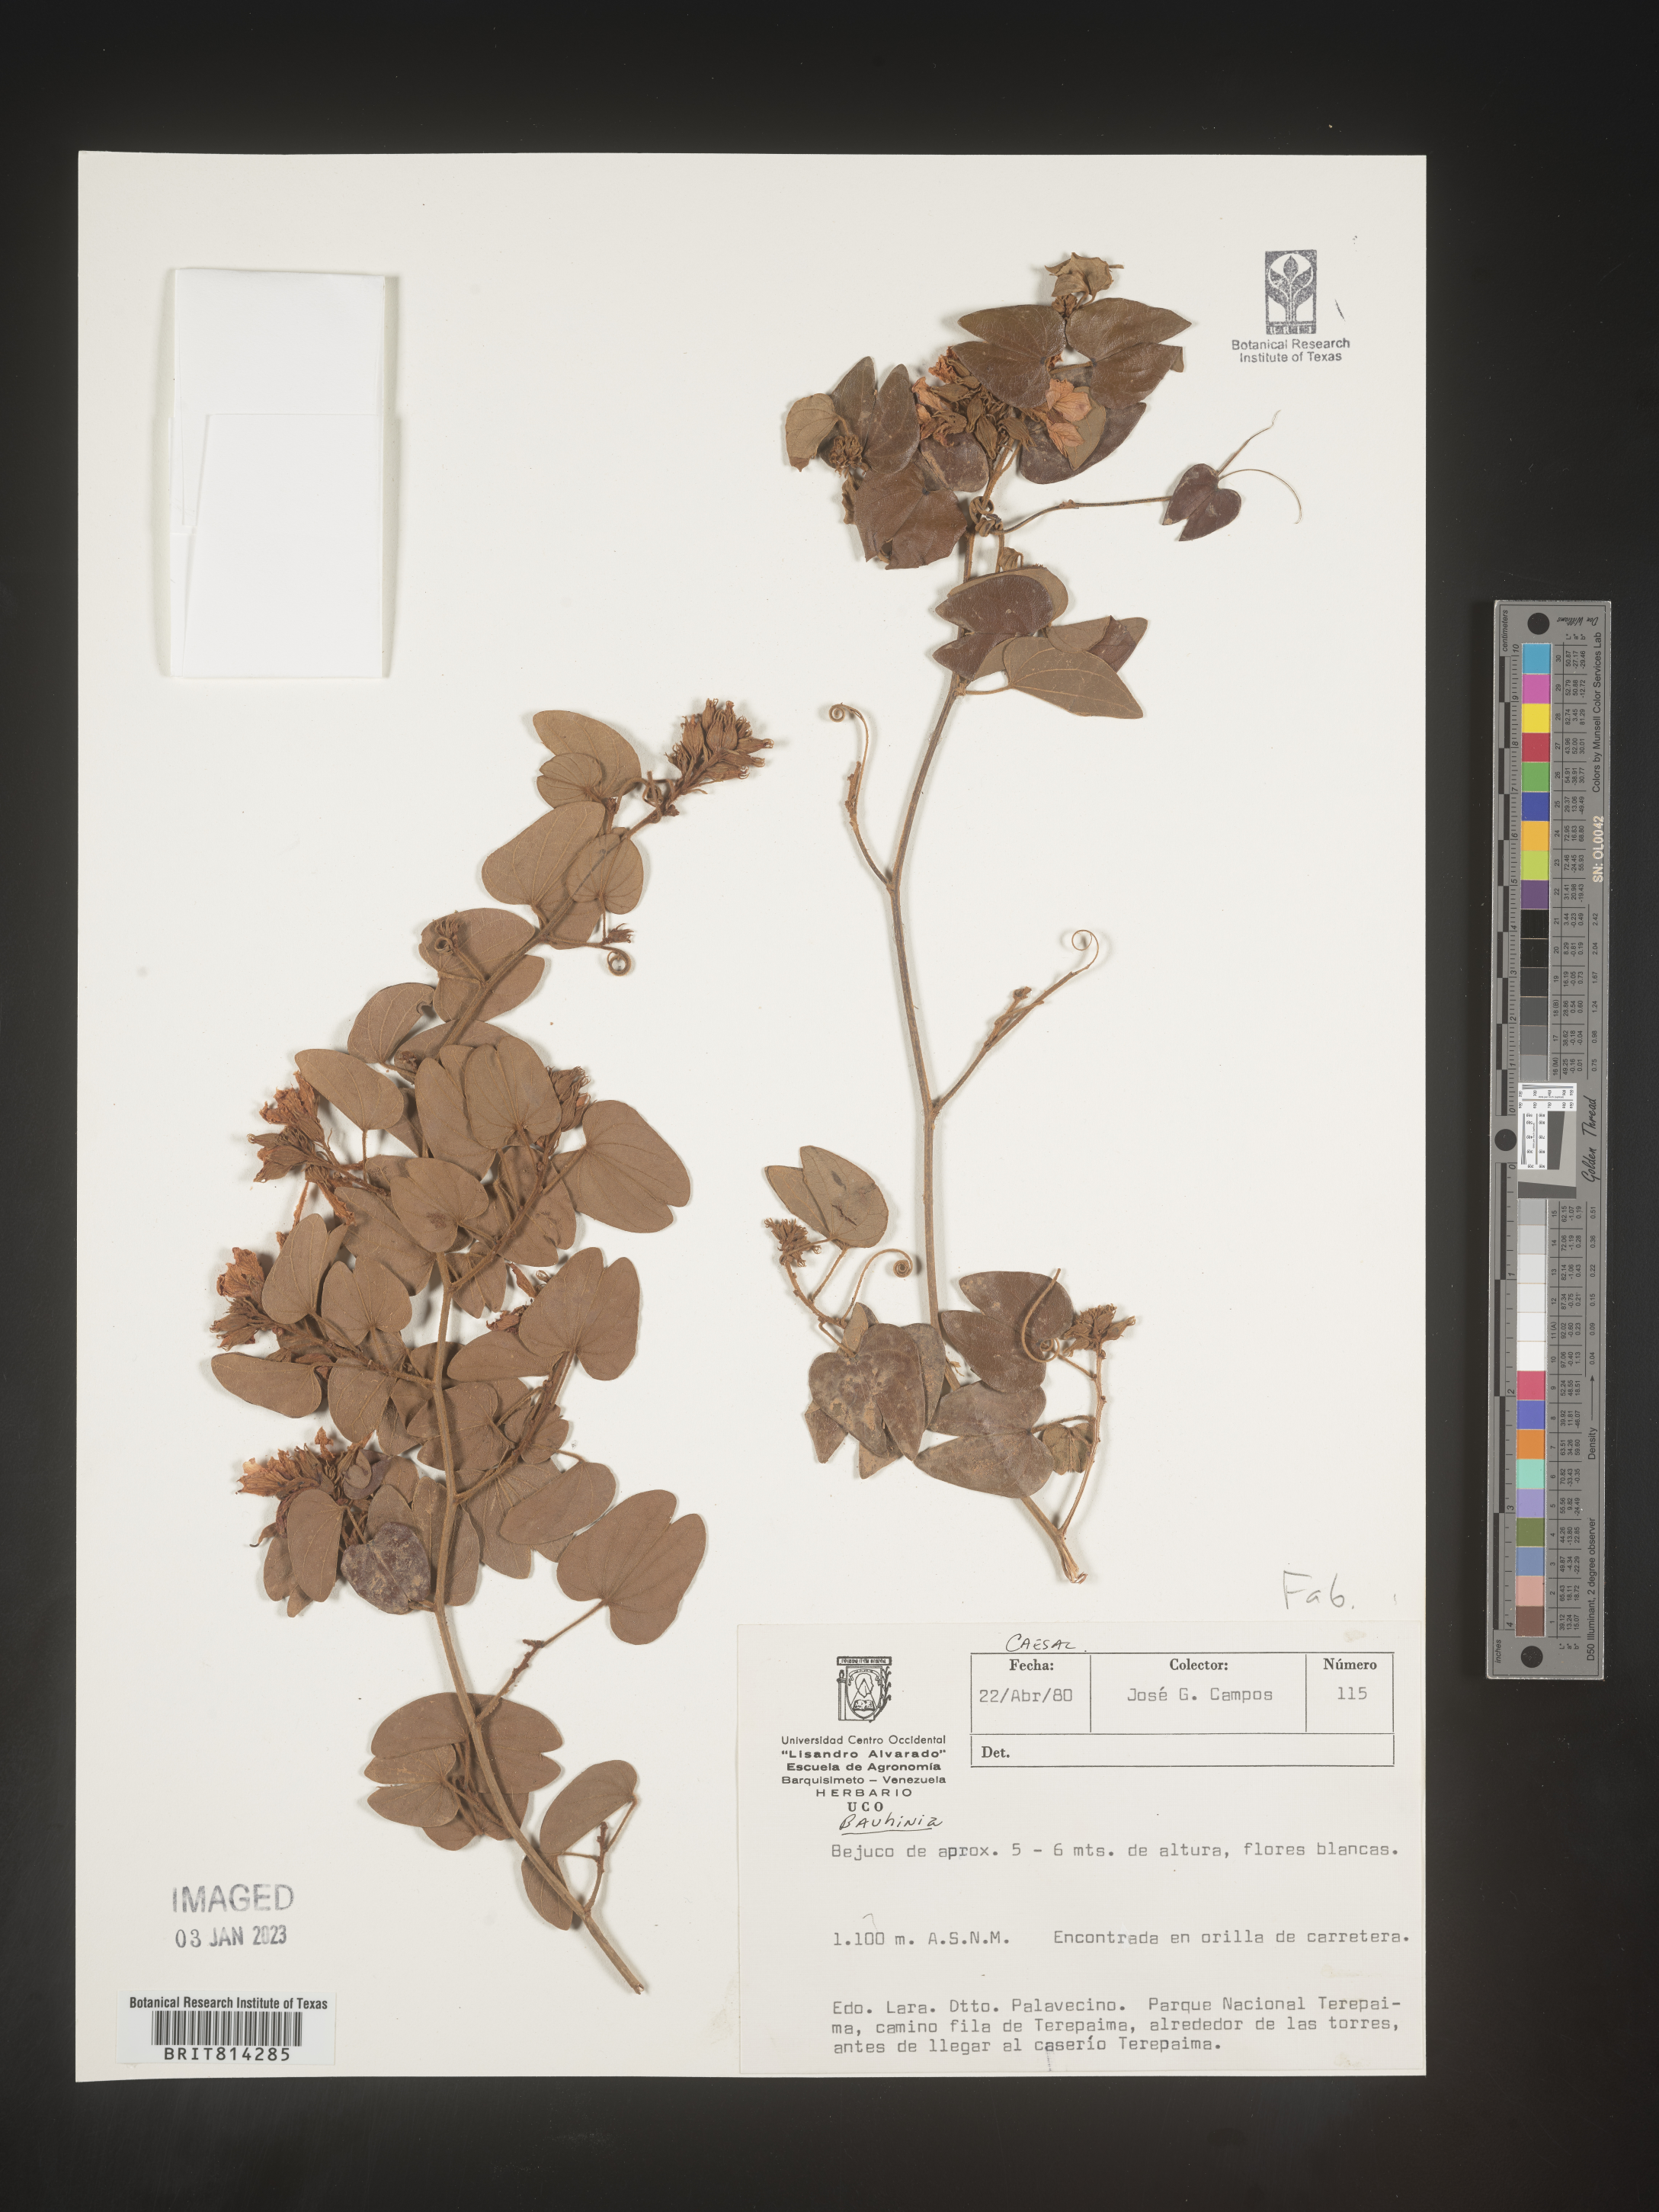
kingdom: Plantae
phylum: Tracheophyta
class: Magnoliopsida
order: Fabales
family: Fabaceae
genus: Bauhinia
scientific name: Bauhinia
